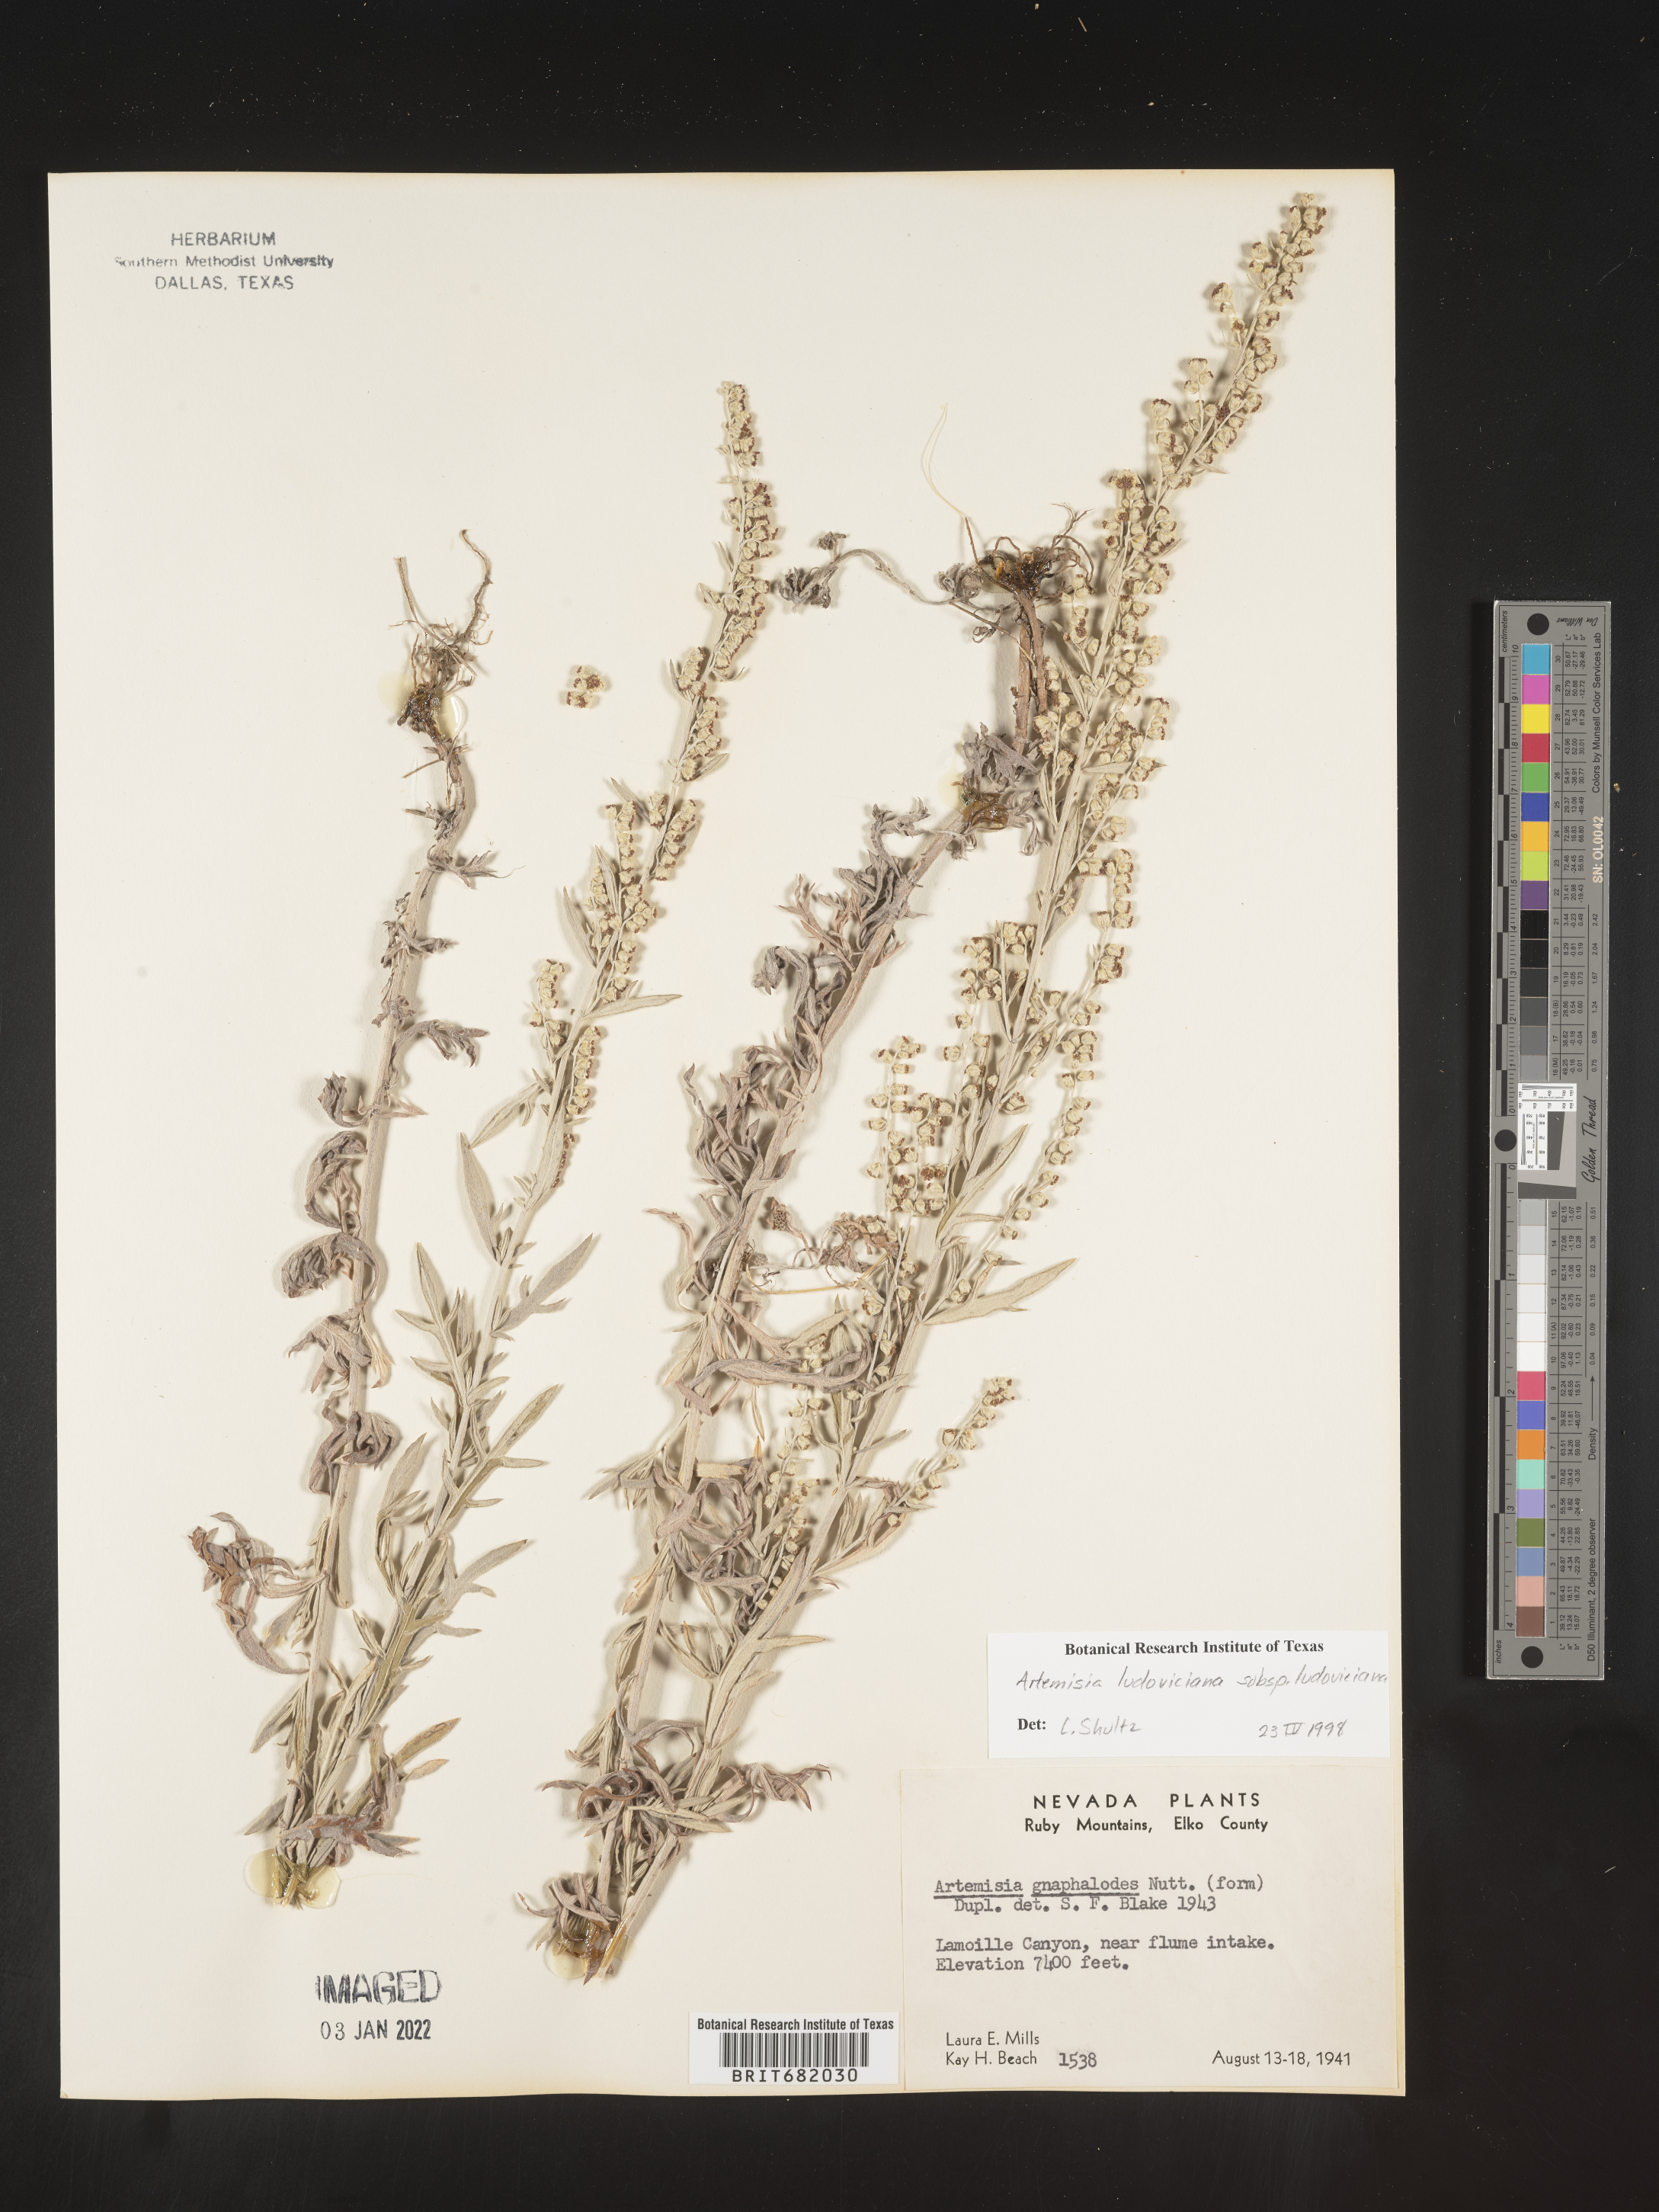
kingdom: Plantae
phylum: Tracheophyta
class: Magnoliopsida
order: Asterales
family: Asteraceae
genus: Artemisia
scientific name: Artemisia ludoviciana
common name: Western mugwort
